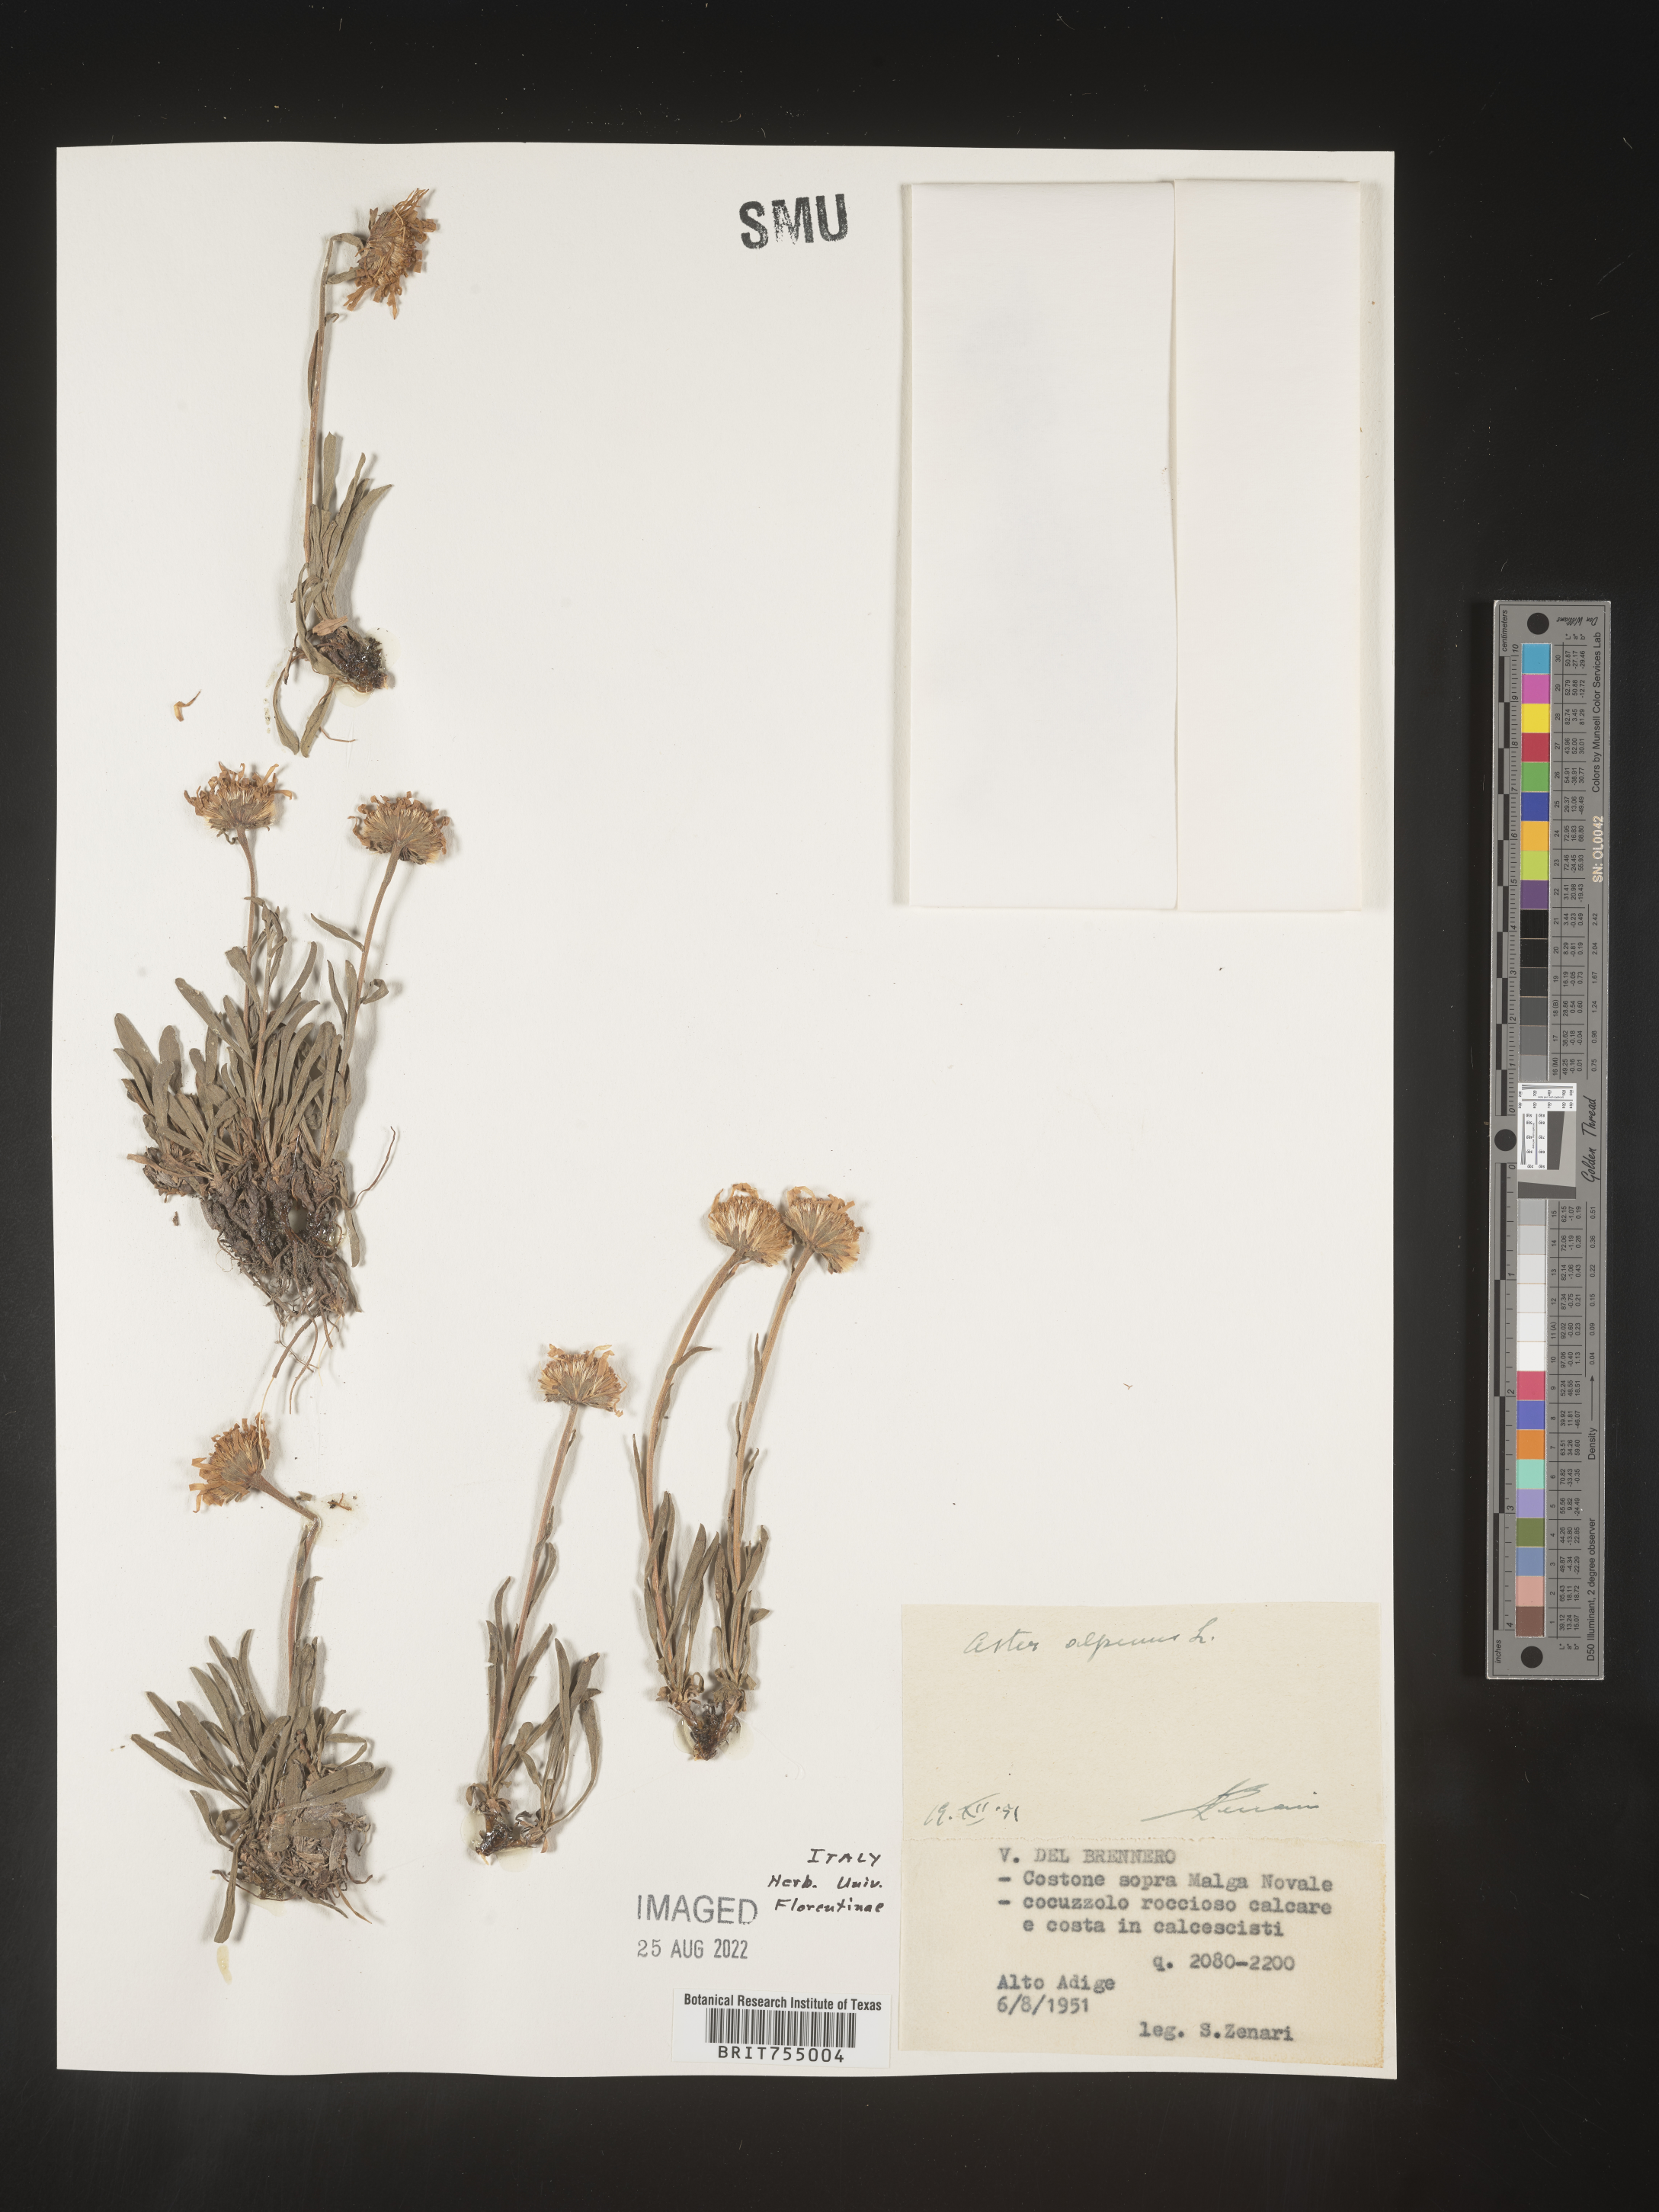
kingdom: Plantae
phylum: Tracheophyta
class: Magnoliopsida
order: Asterales
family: Asteraceae
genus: Symphyotrichum
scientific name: Symphyotrichum
